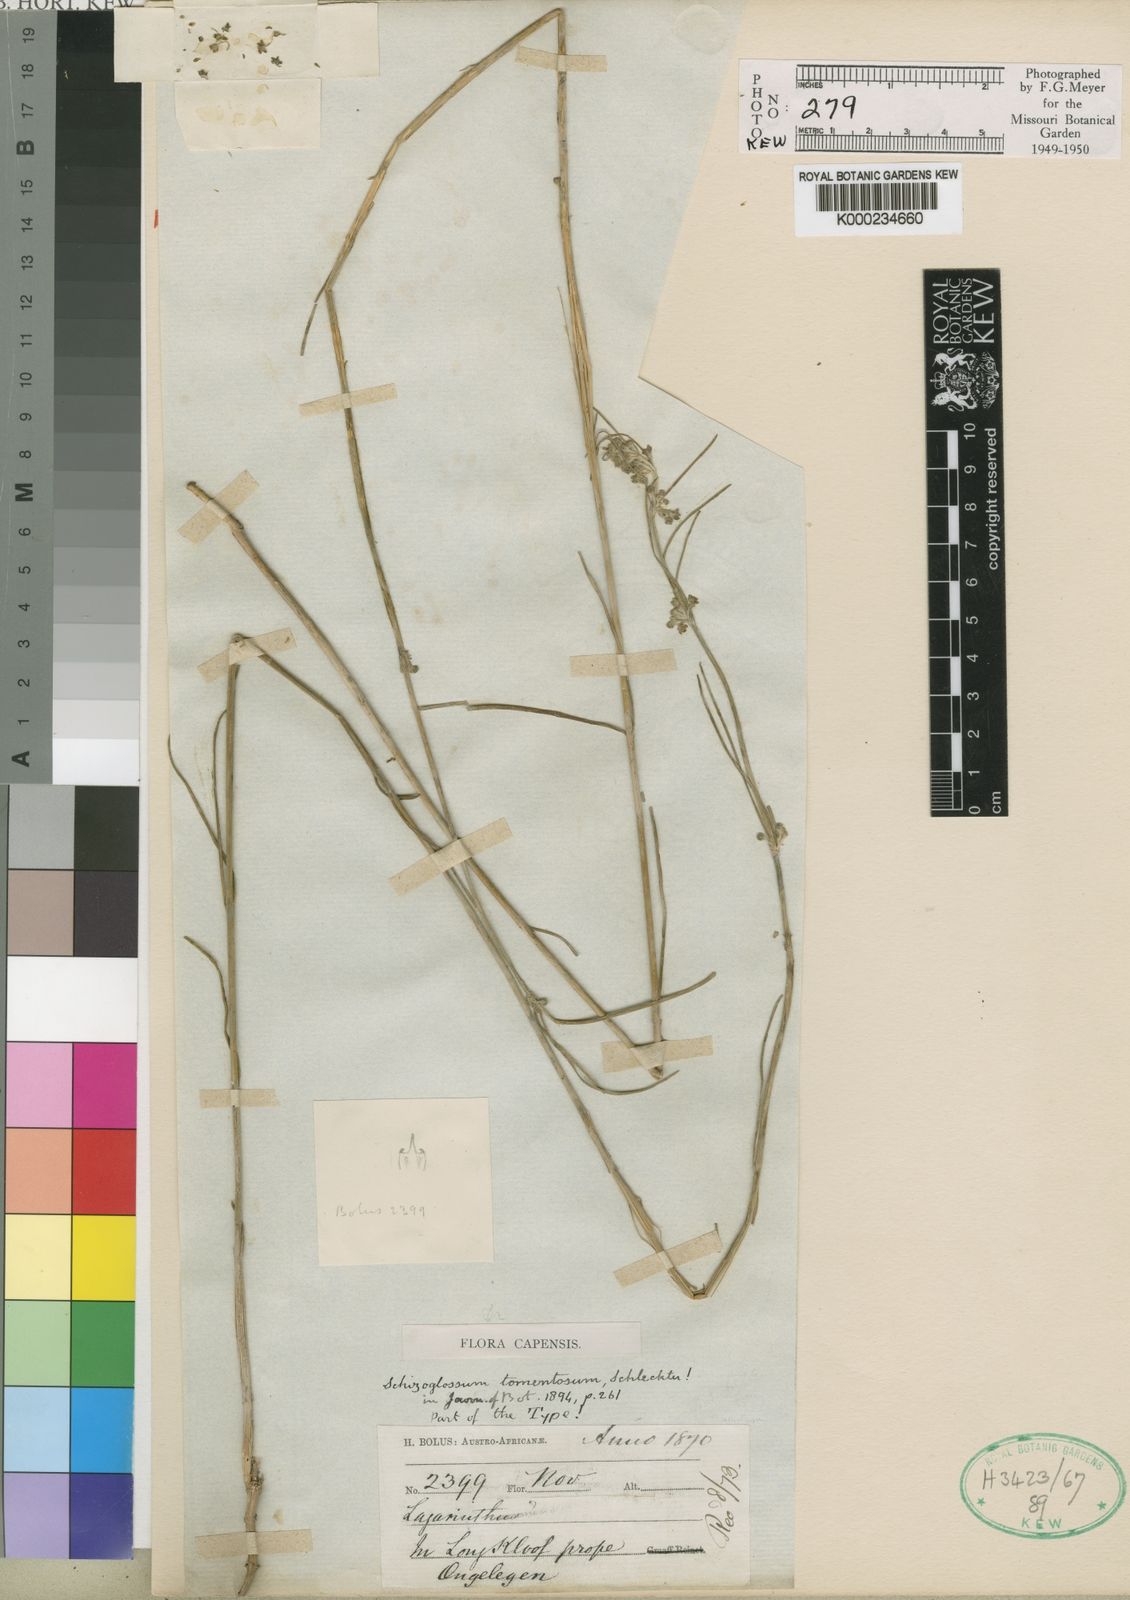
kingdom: Plantae
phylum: Tracheophyta
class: Magnoliopsida
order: Gentianales
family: Apocynaceae
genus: Aspidoglossum
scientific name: Aspidoglossum gracile
